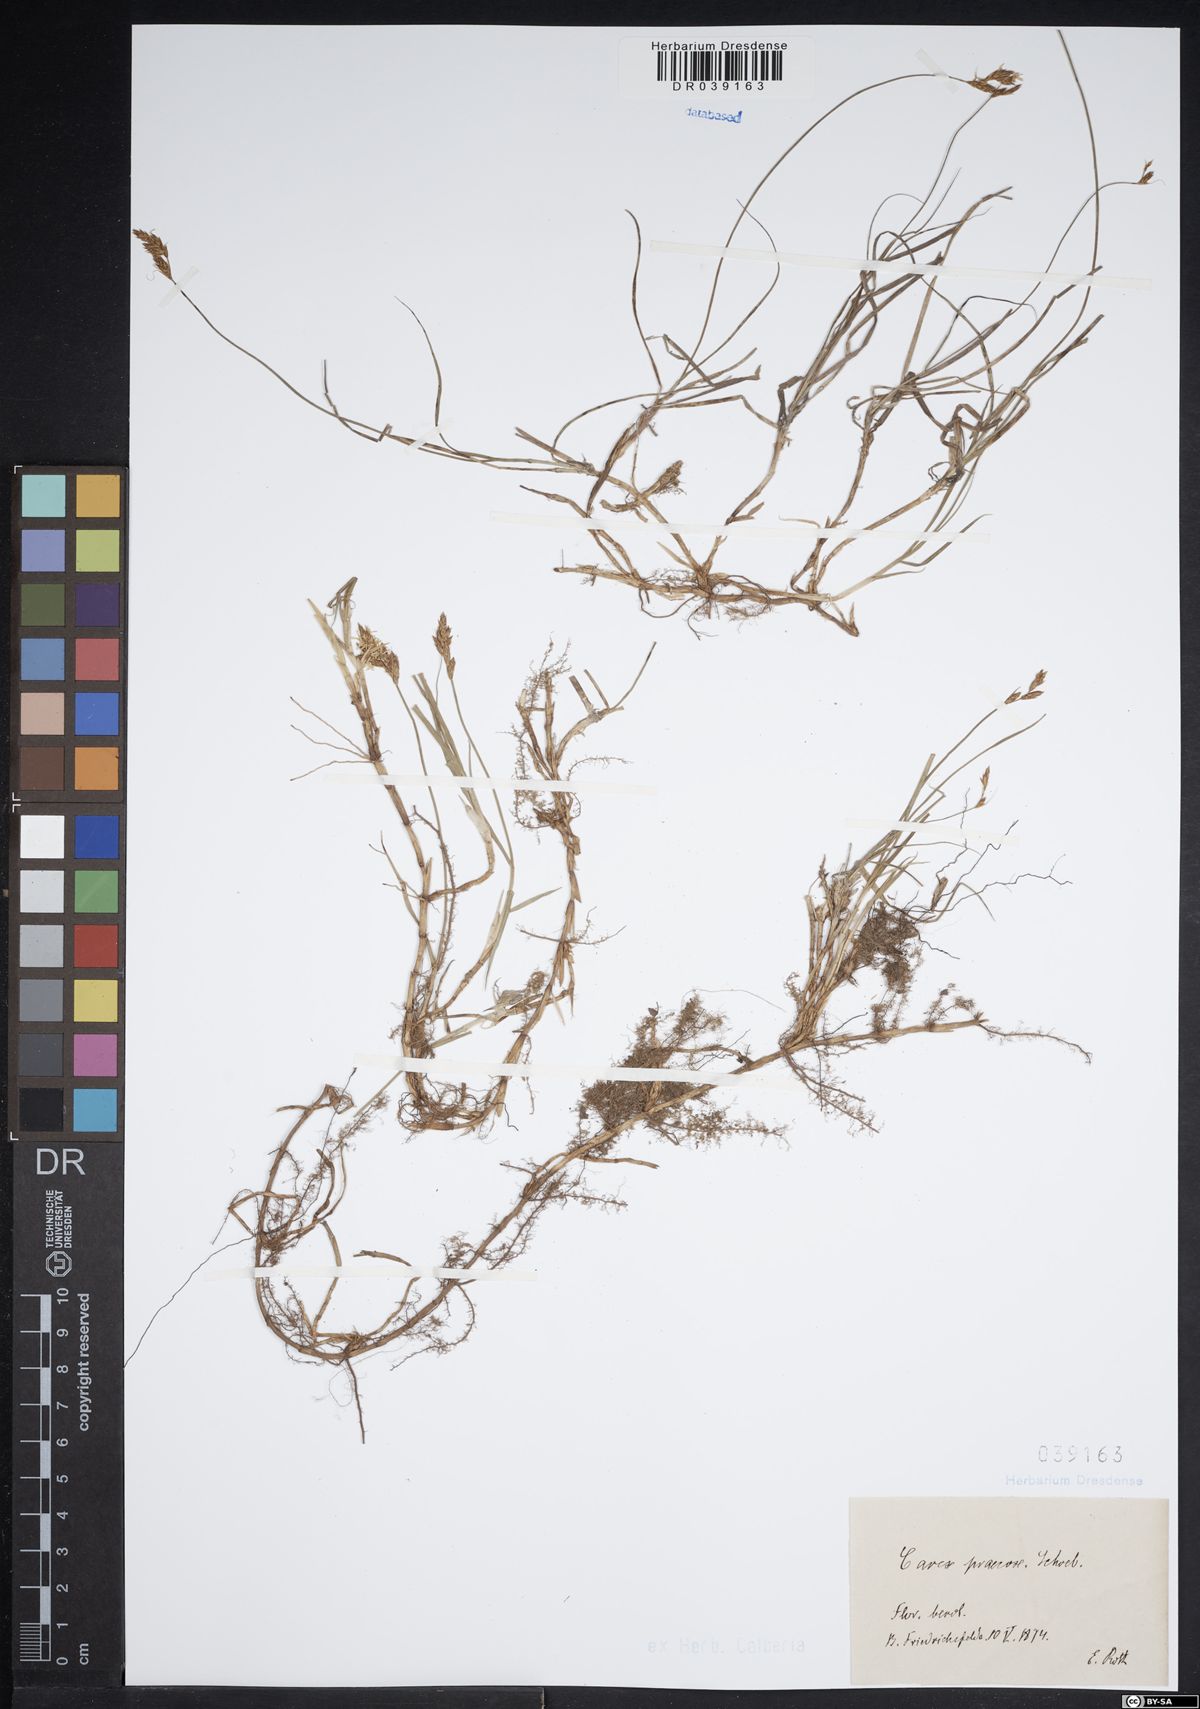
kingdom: Plantae
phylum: Tracheophyta
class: Liliopsida
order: Poales
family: Cyperaceae
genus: Carex
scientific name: Carex praecox
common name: Early sedge
